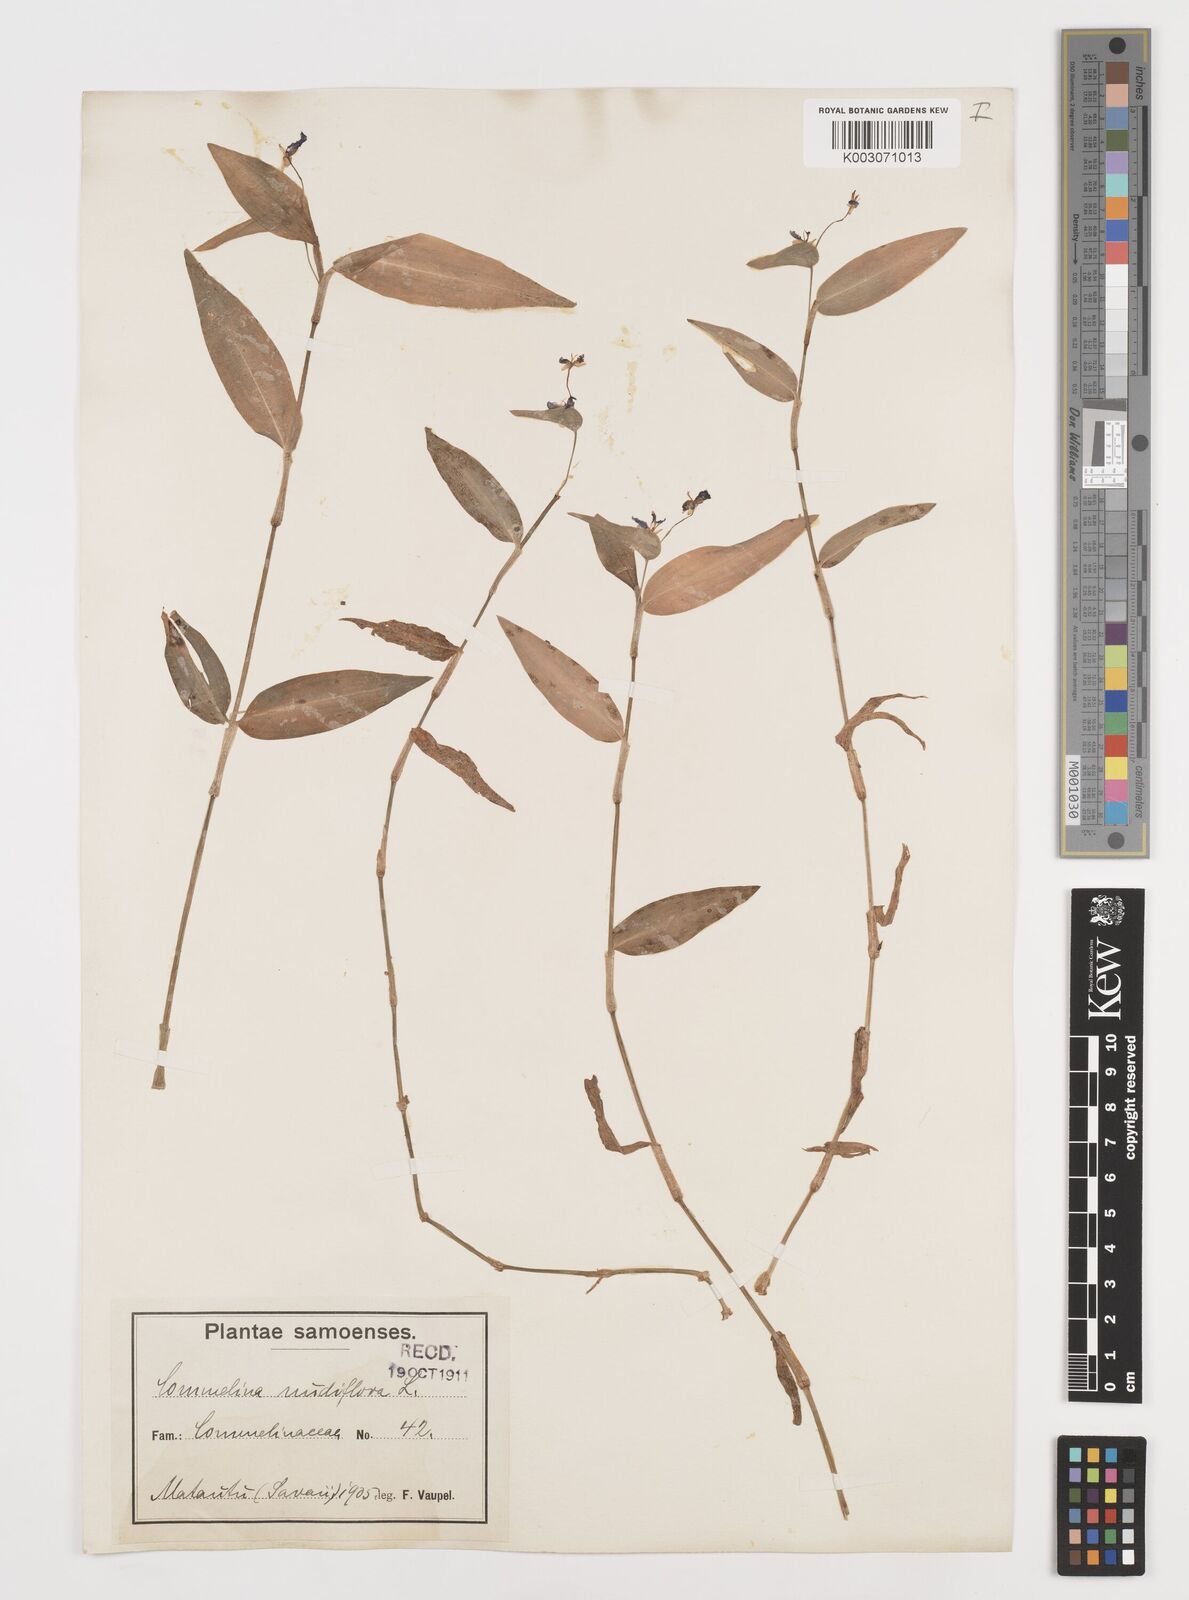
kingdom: Plantae
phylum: Tracheophyta
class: Liliopsida
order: Commelinales
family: Commelinaceae
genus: Murdannia
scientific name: Murdannia nudiflora
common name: Nakedstem dewflower
